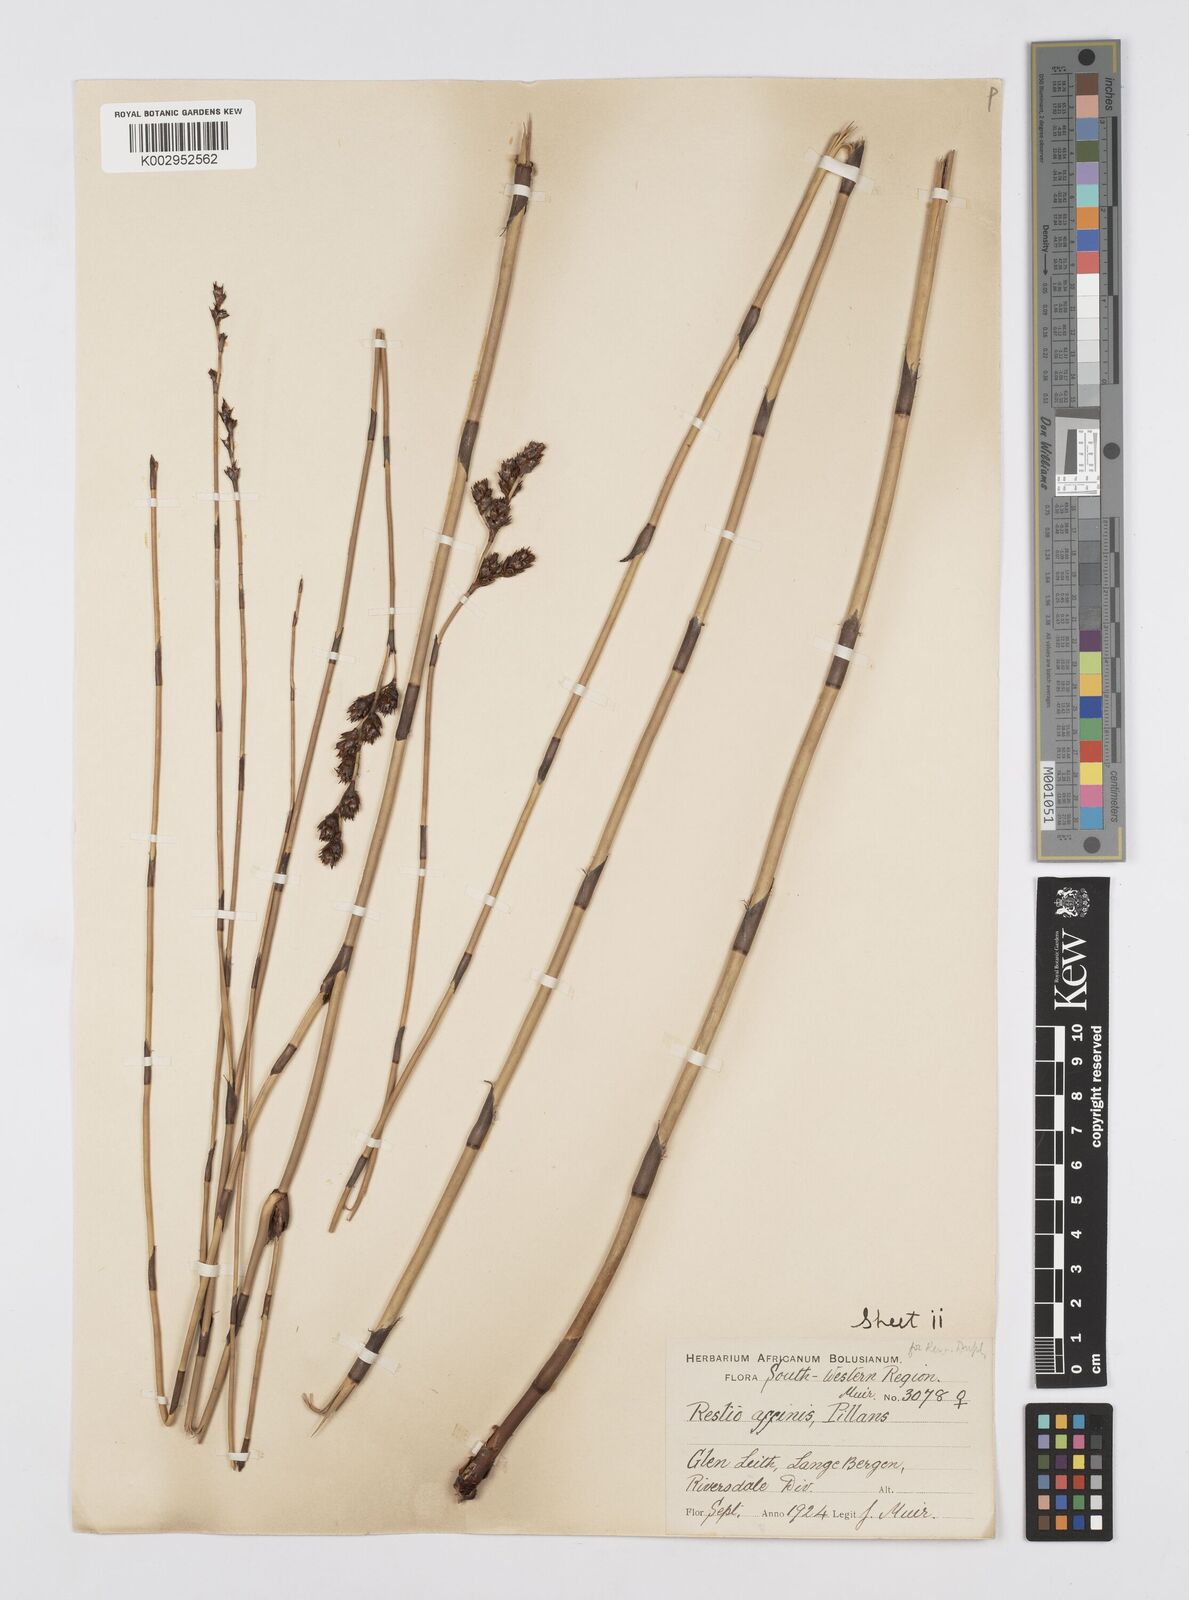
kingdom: Plantae
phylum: Tracheophyta
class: Liliopsida
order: Poales
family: Restionaceae
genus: Restio
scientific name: Restio gaudichaudianus
